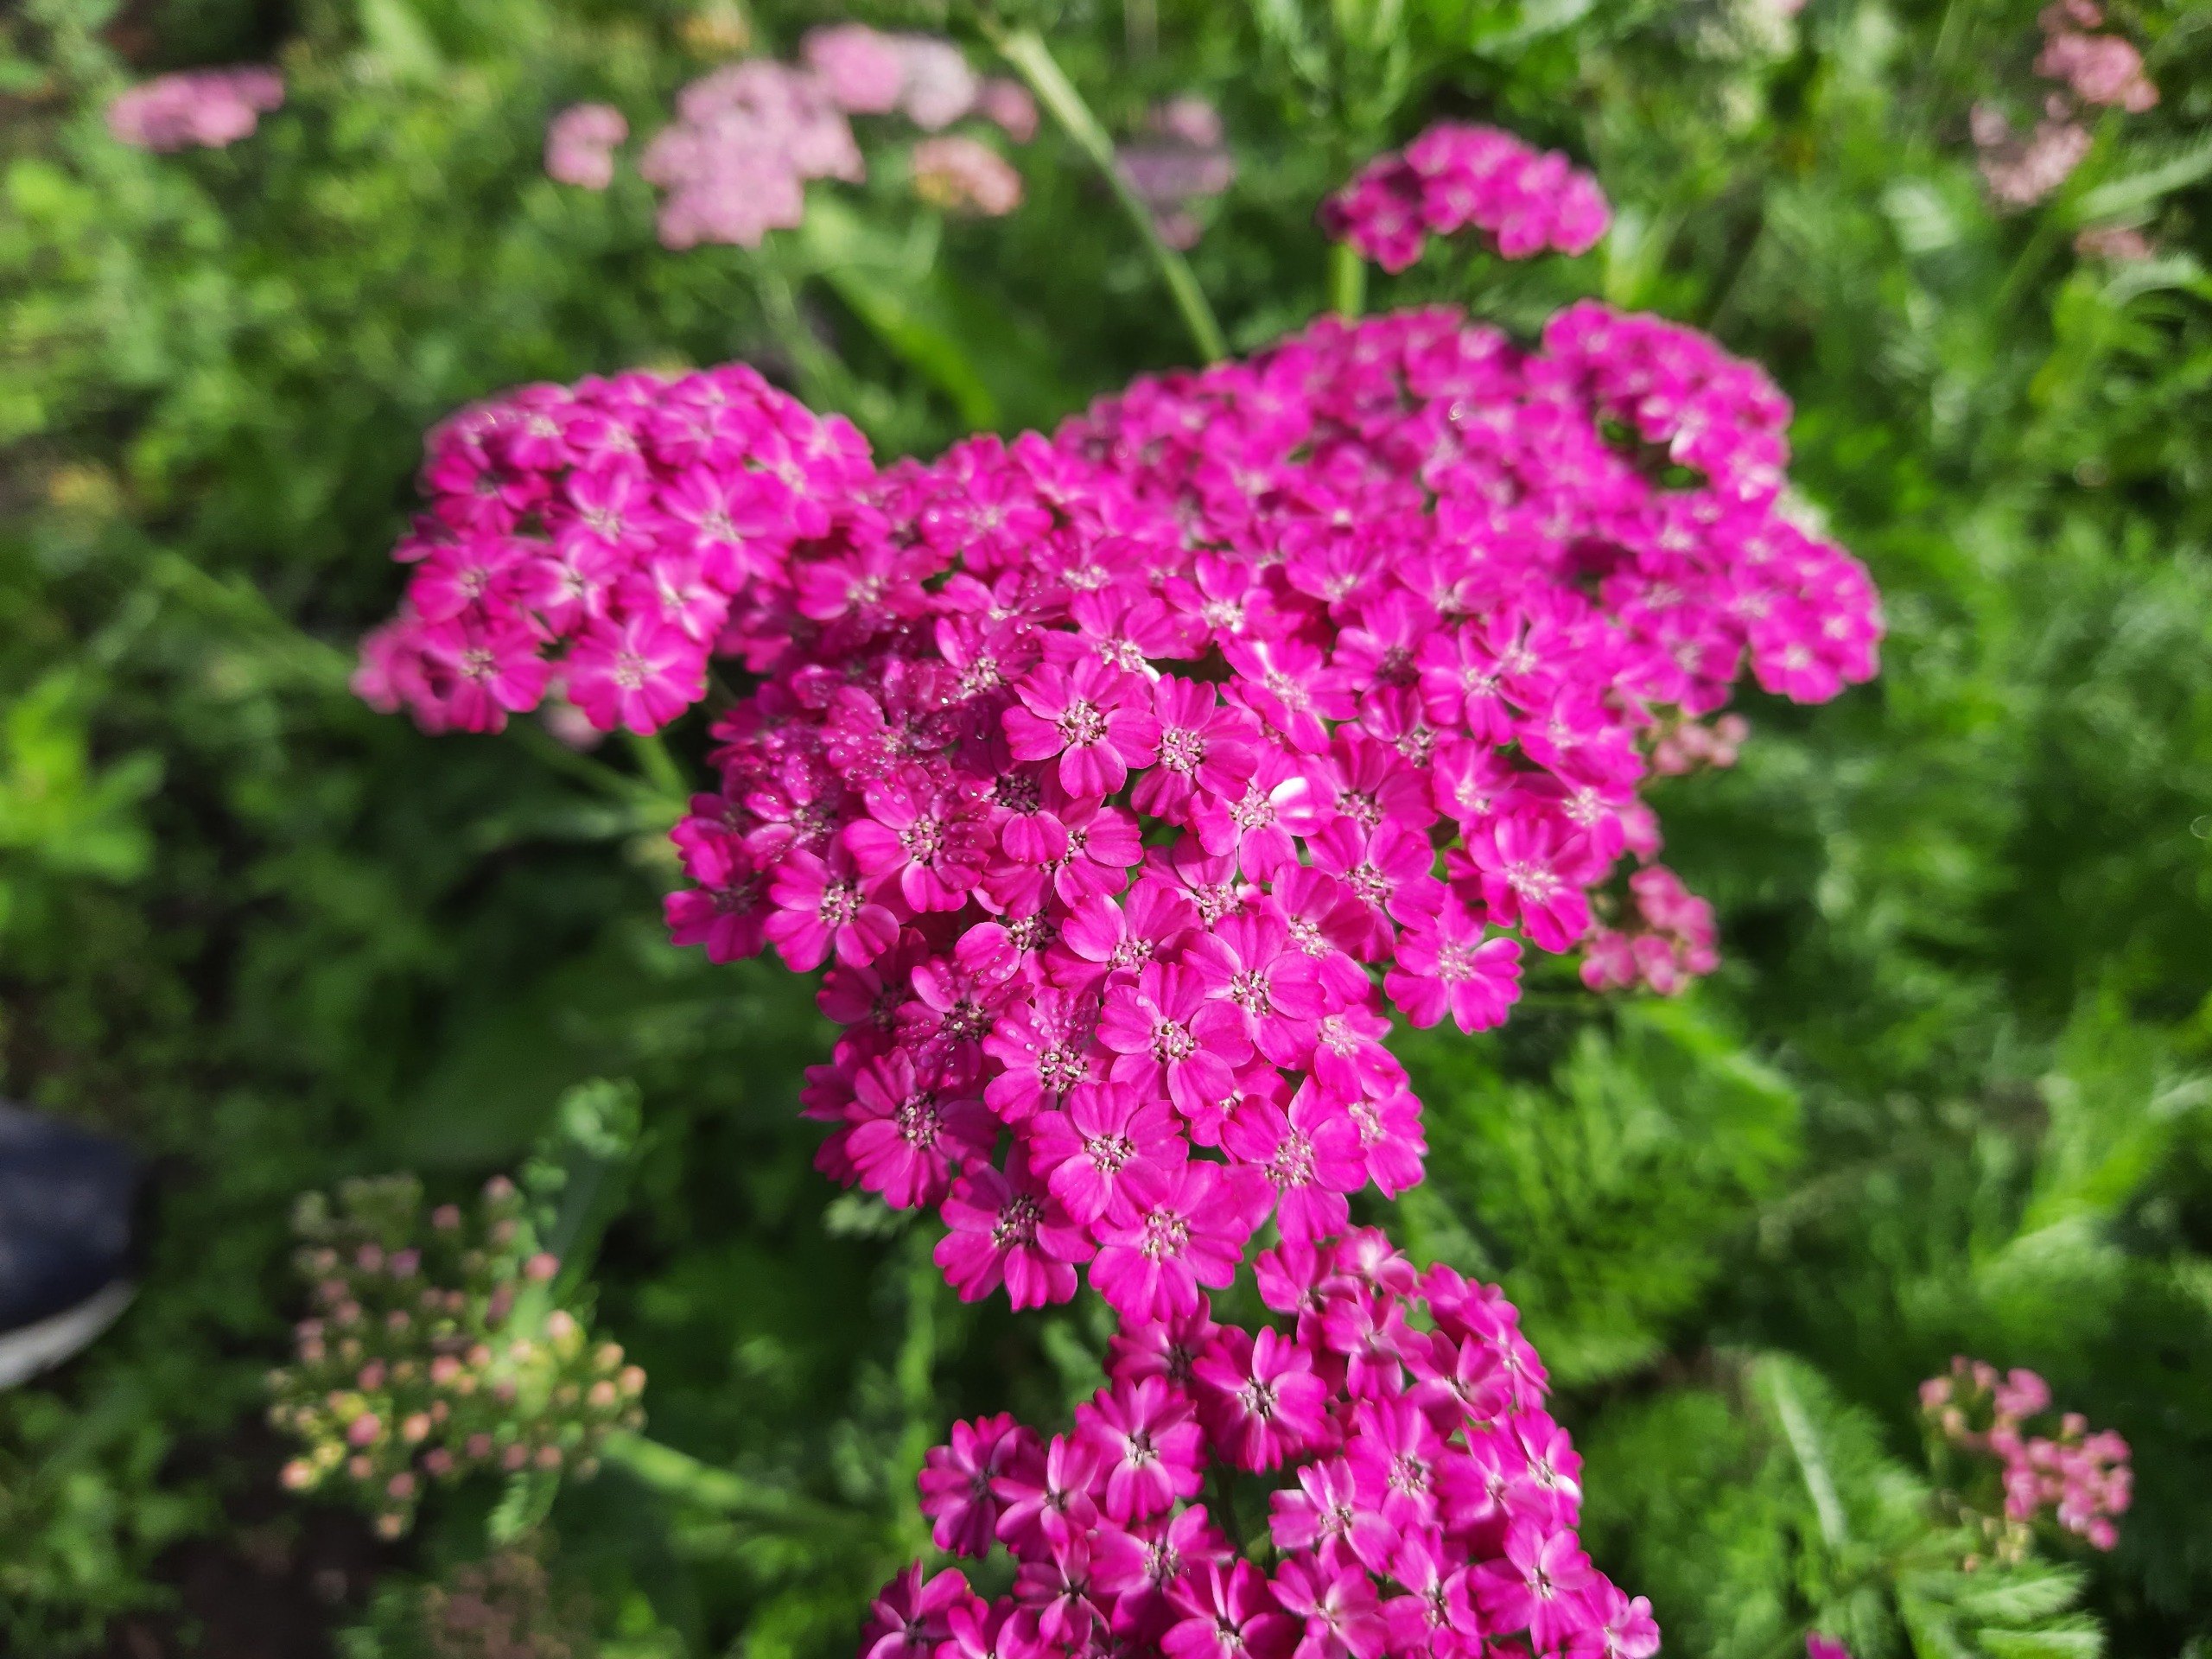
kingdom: Plantae
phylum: Tracheophyta
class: Magnoliopsida
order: Asterales
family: Asteraceae
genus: Achillea
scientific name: Achillea millefolium
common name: Almindelig røllike
